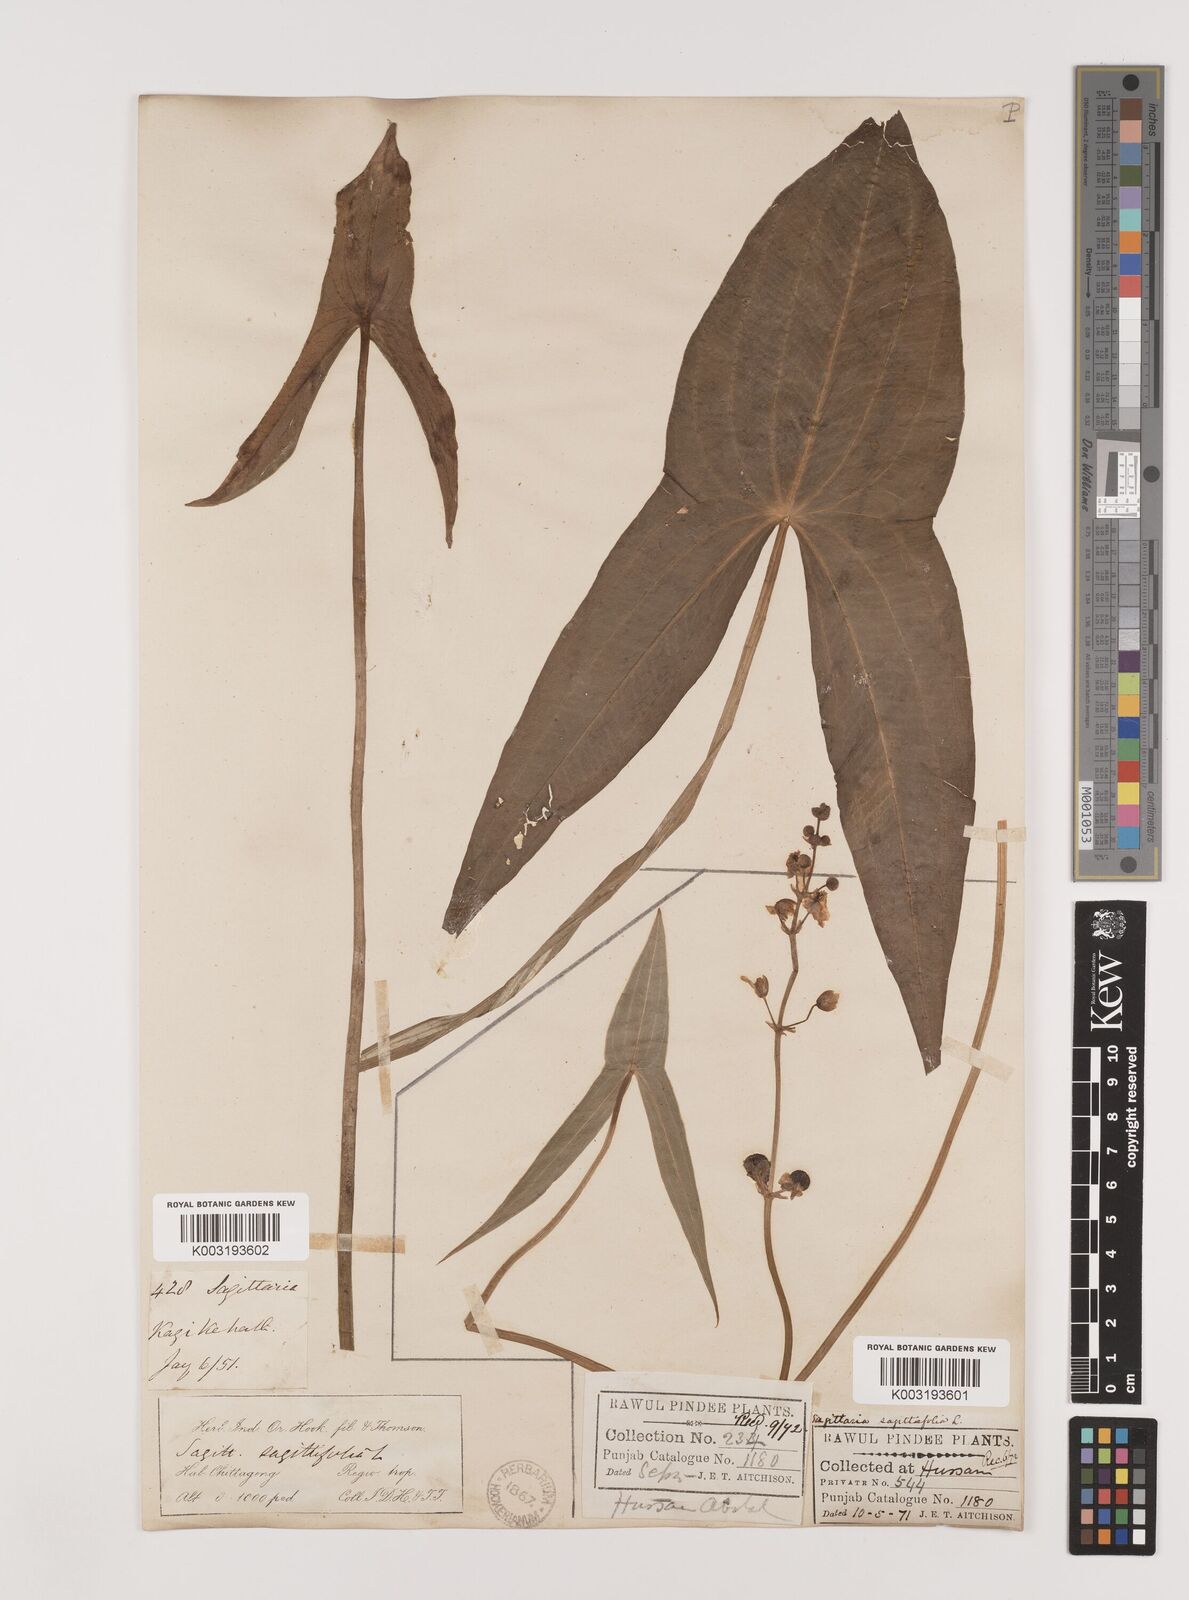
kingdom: Plantae
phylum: Tracheophyta
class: Liliopsida
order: Alismatales
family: Alismataceae
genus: Sagittaria
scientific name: Sagittaria sagittifolia
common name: Arrowhead
